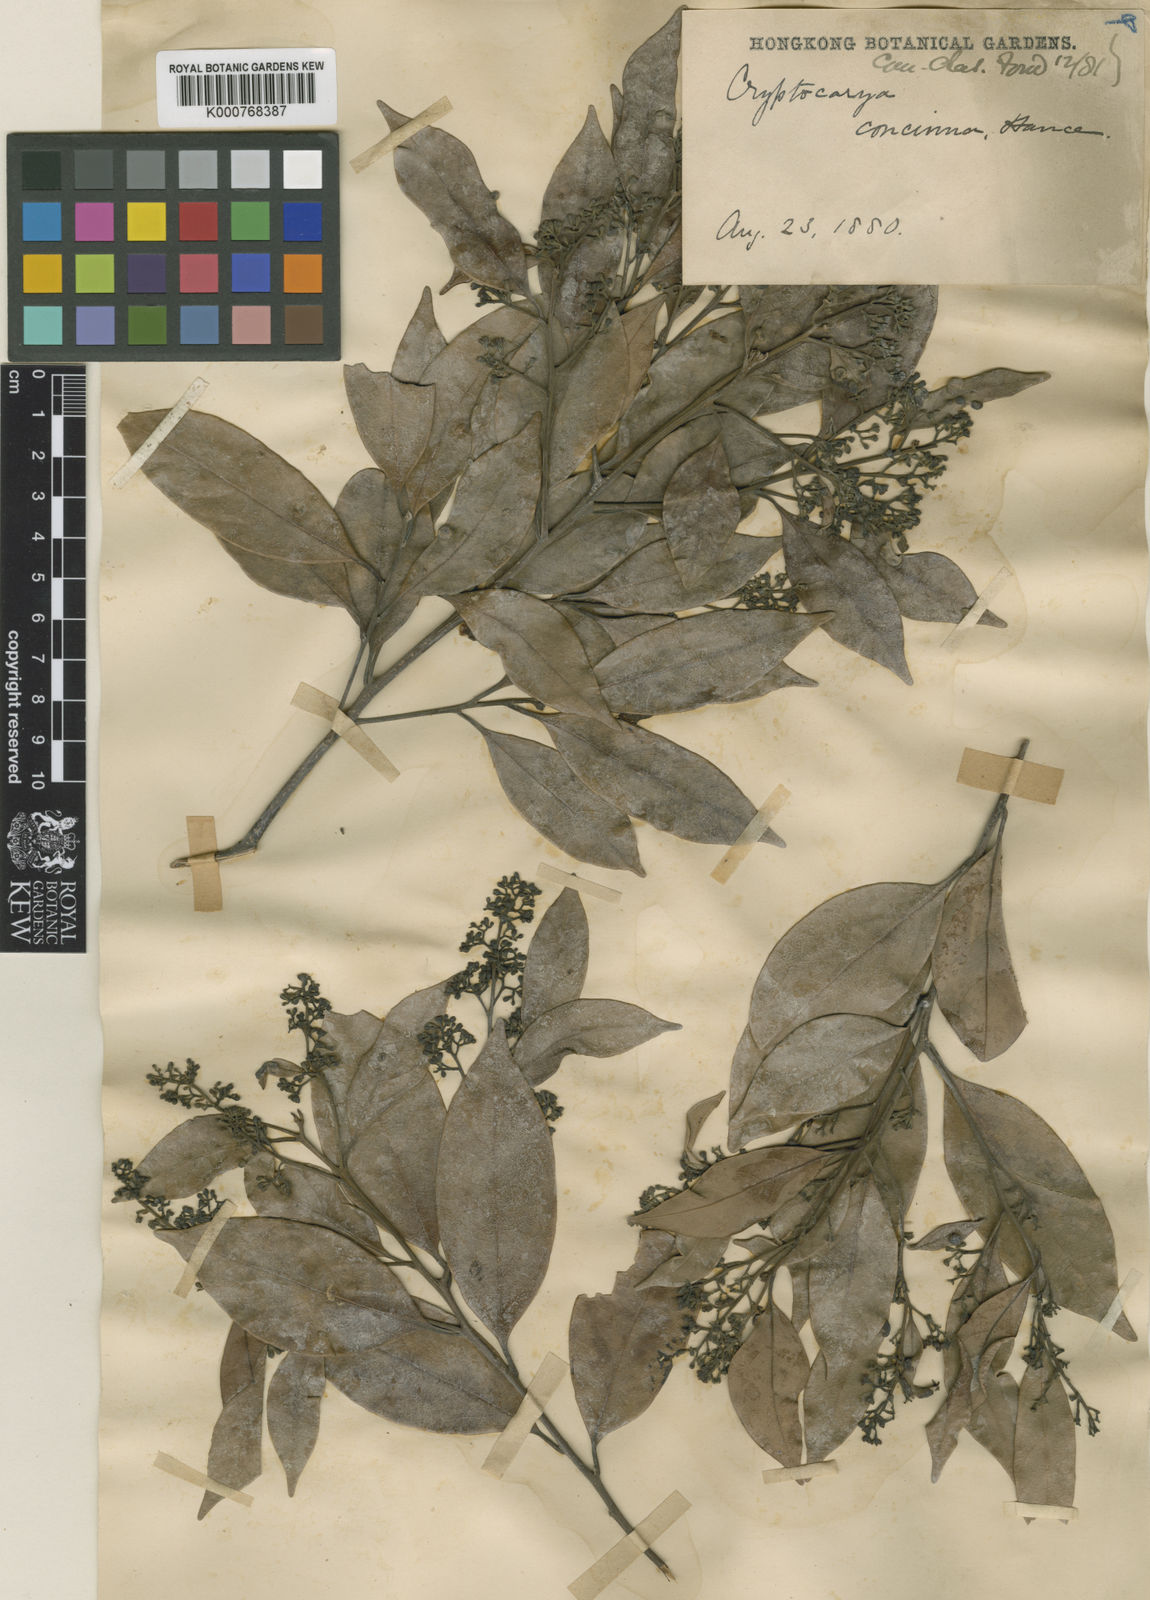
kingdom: Plantae
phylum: Tracheophyta
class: Magnoliopsida
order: Laurales
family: Lauraceae
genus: Cryptocarya
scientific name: Cryptocarya concinna
